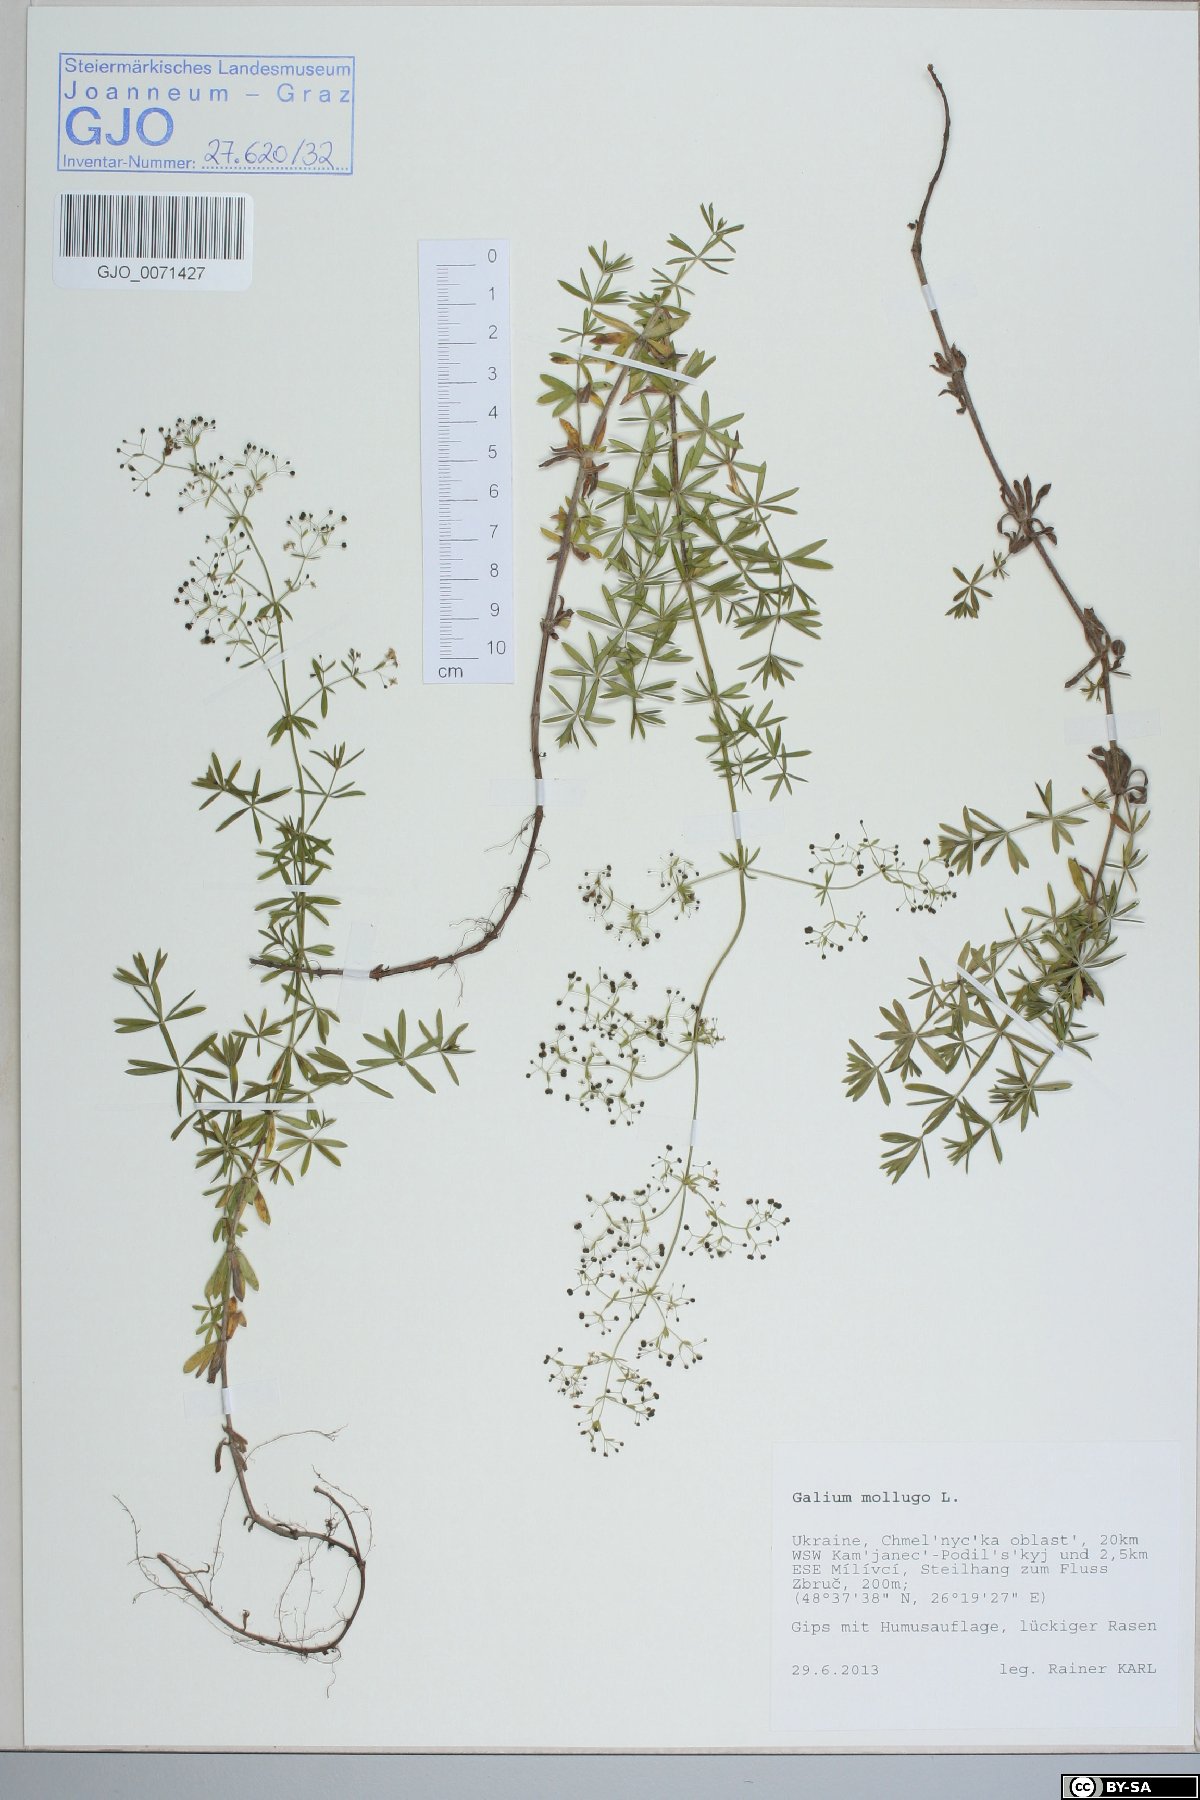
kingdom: Plantae
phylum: Tracheophyta
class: Magnoliopsida
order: Gentianales
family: Rubiaceae
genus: Galium
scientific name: Galium mollugo
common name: Hedge bedstraw
